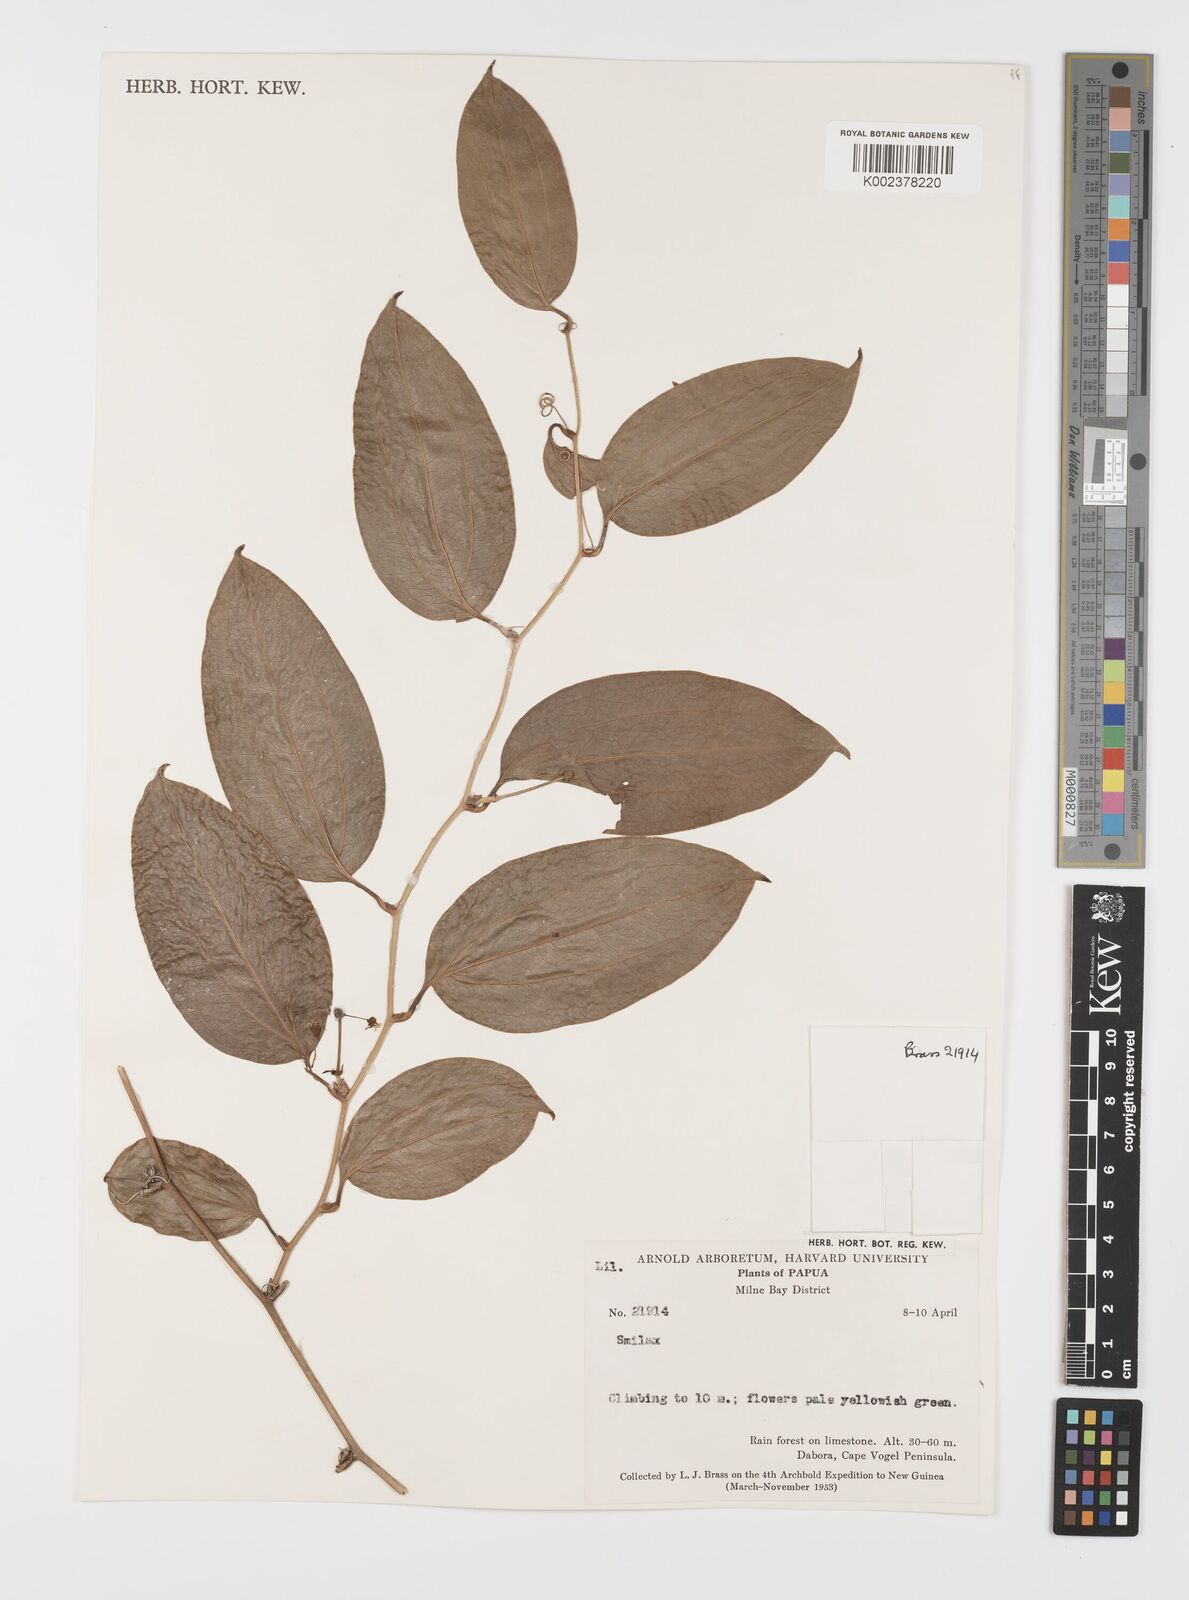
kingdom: Plantae
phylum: Tracheophyta
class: Liliopsida
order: Liliales
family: Smilacaceae
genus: Smilax
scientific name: Smilax
